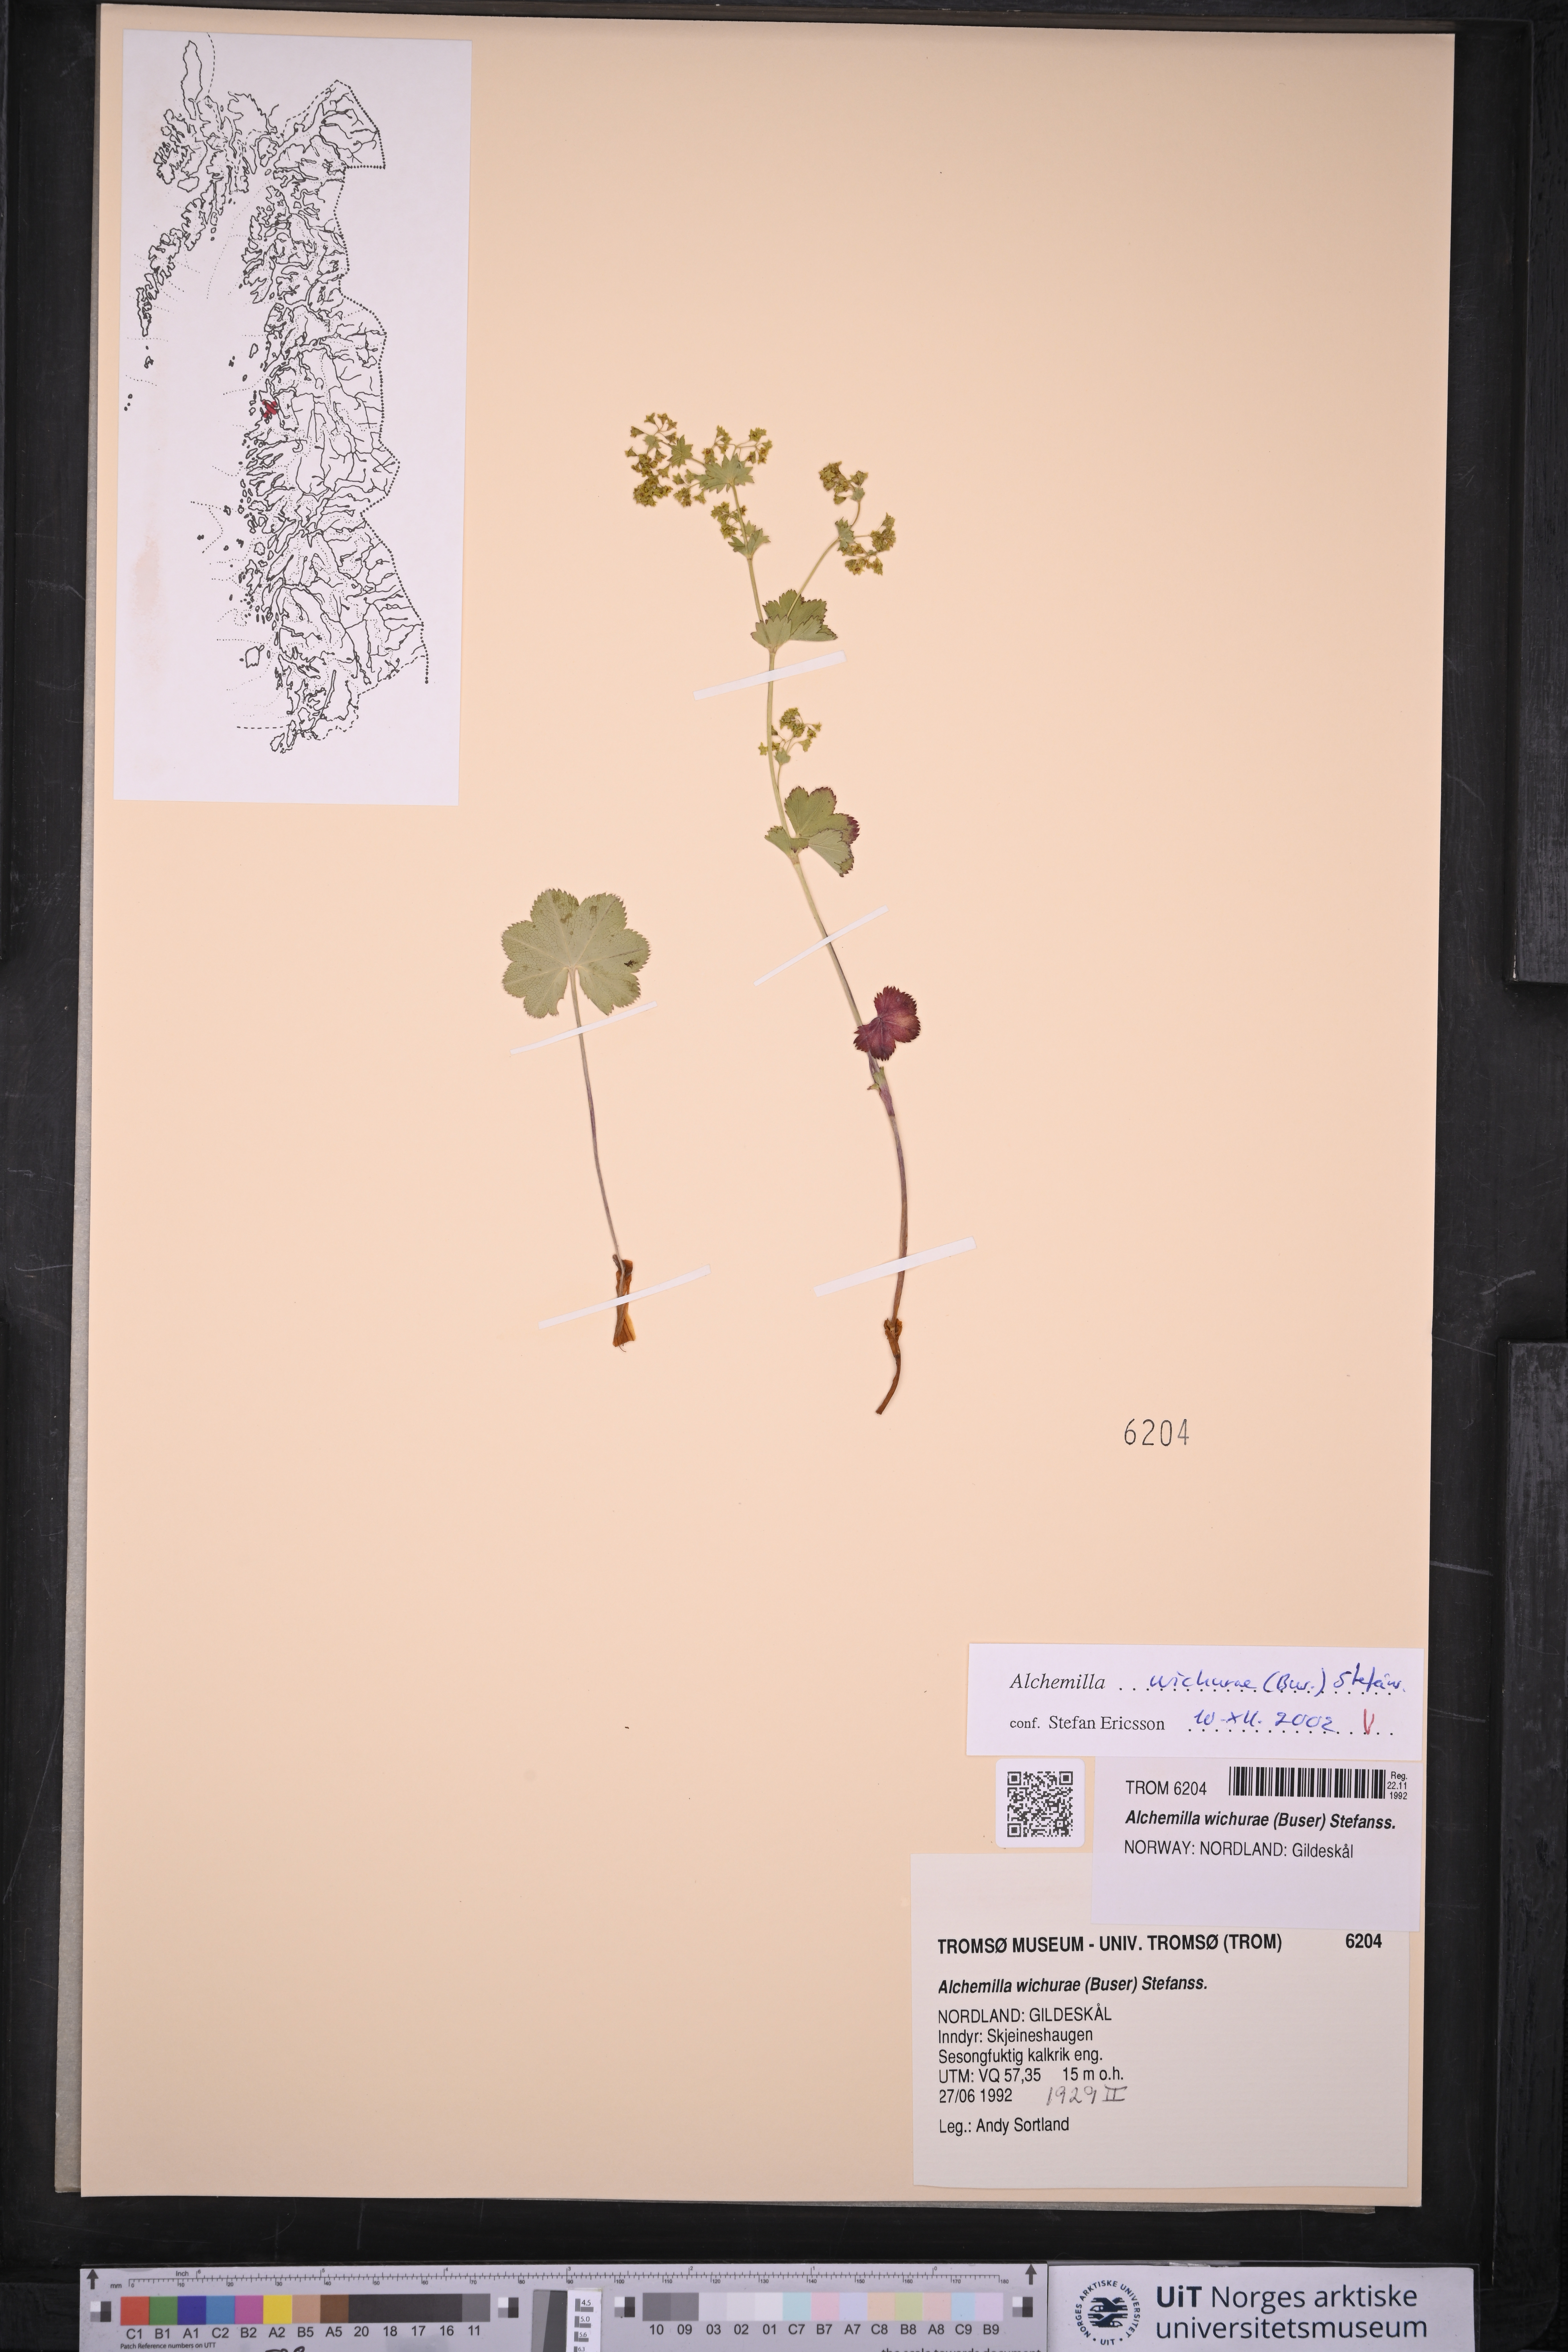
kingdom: Plantae
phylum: Tracheophyta
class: Magnoliopsida
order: Rosales
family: Rosaceae
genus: Alchemilla
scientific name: Alchemilla wichurae
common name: Rock lady's mantle
